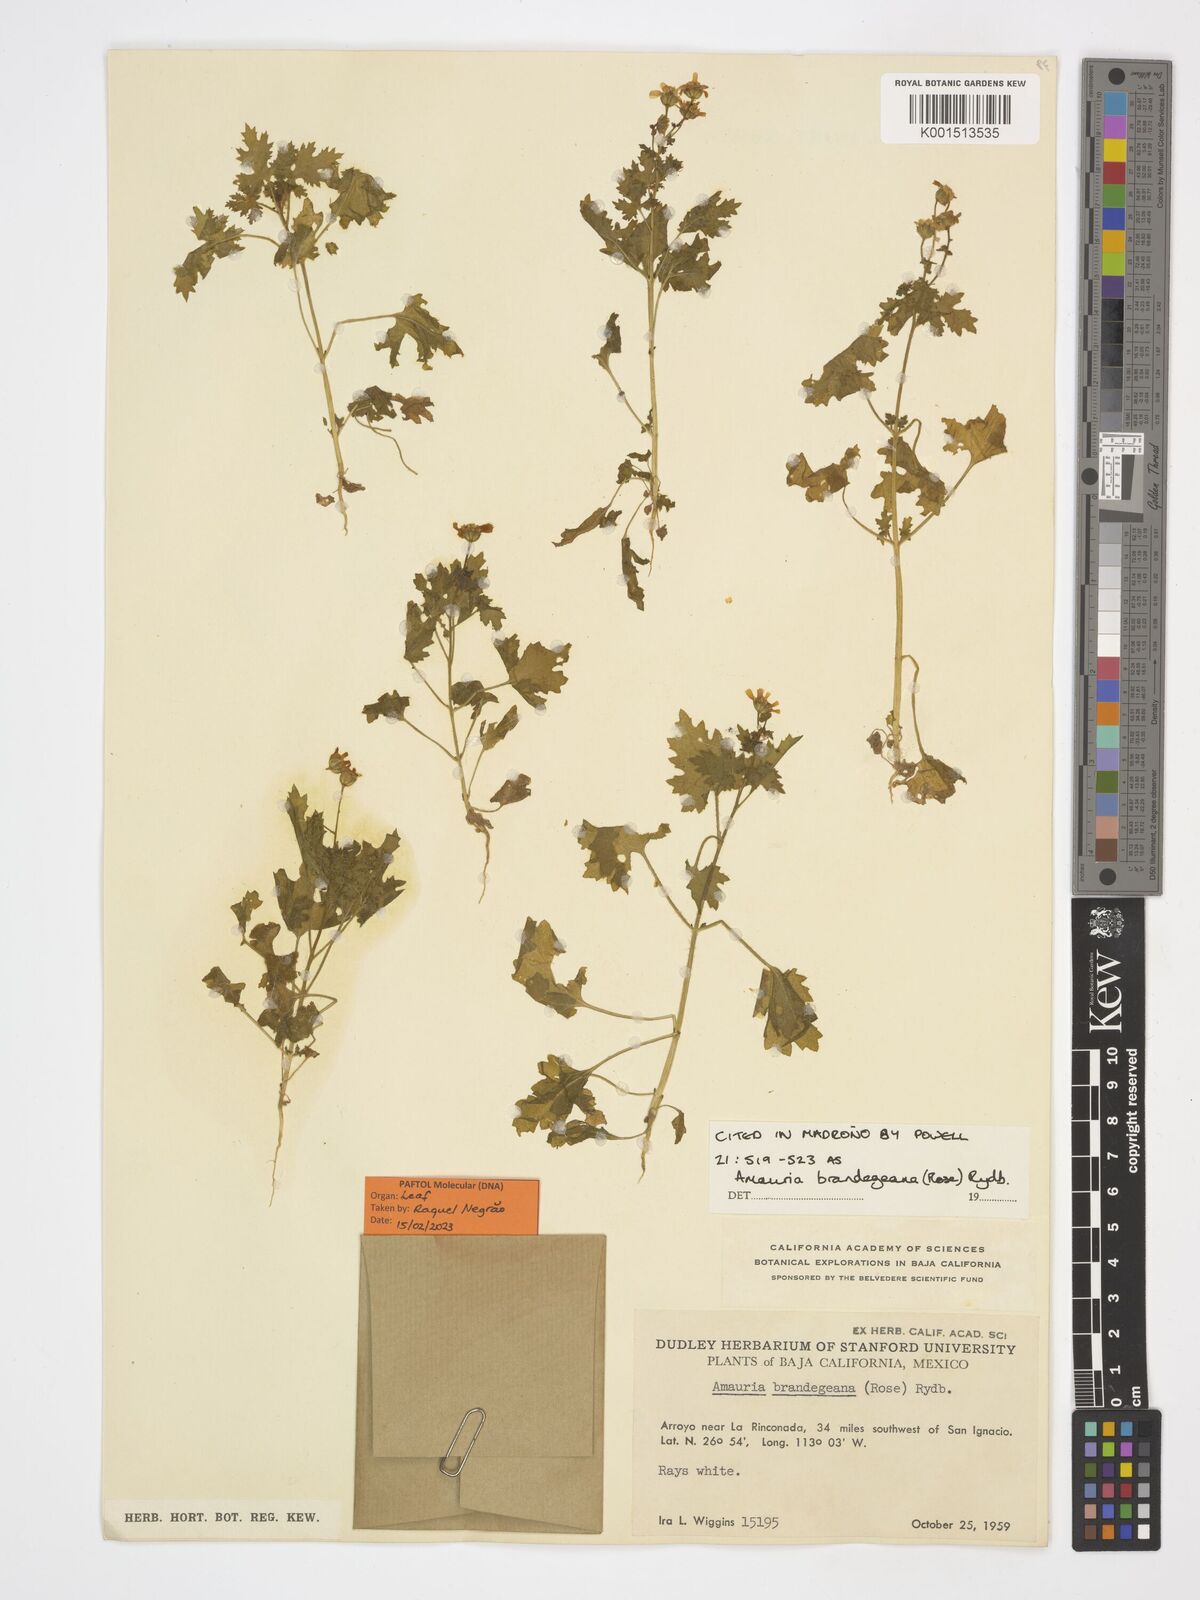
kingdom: Plantae
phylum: Tracheophyta
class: Magnoliopsida
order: Asterales
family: Asteraceae
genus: Perityle
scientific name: Perityle brandegeeana
